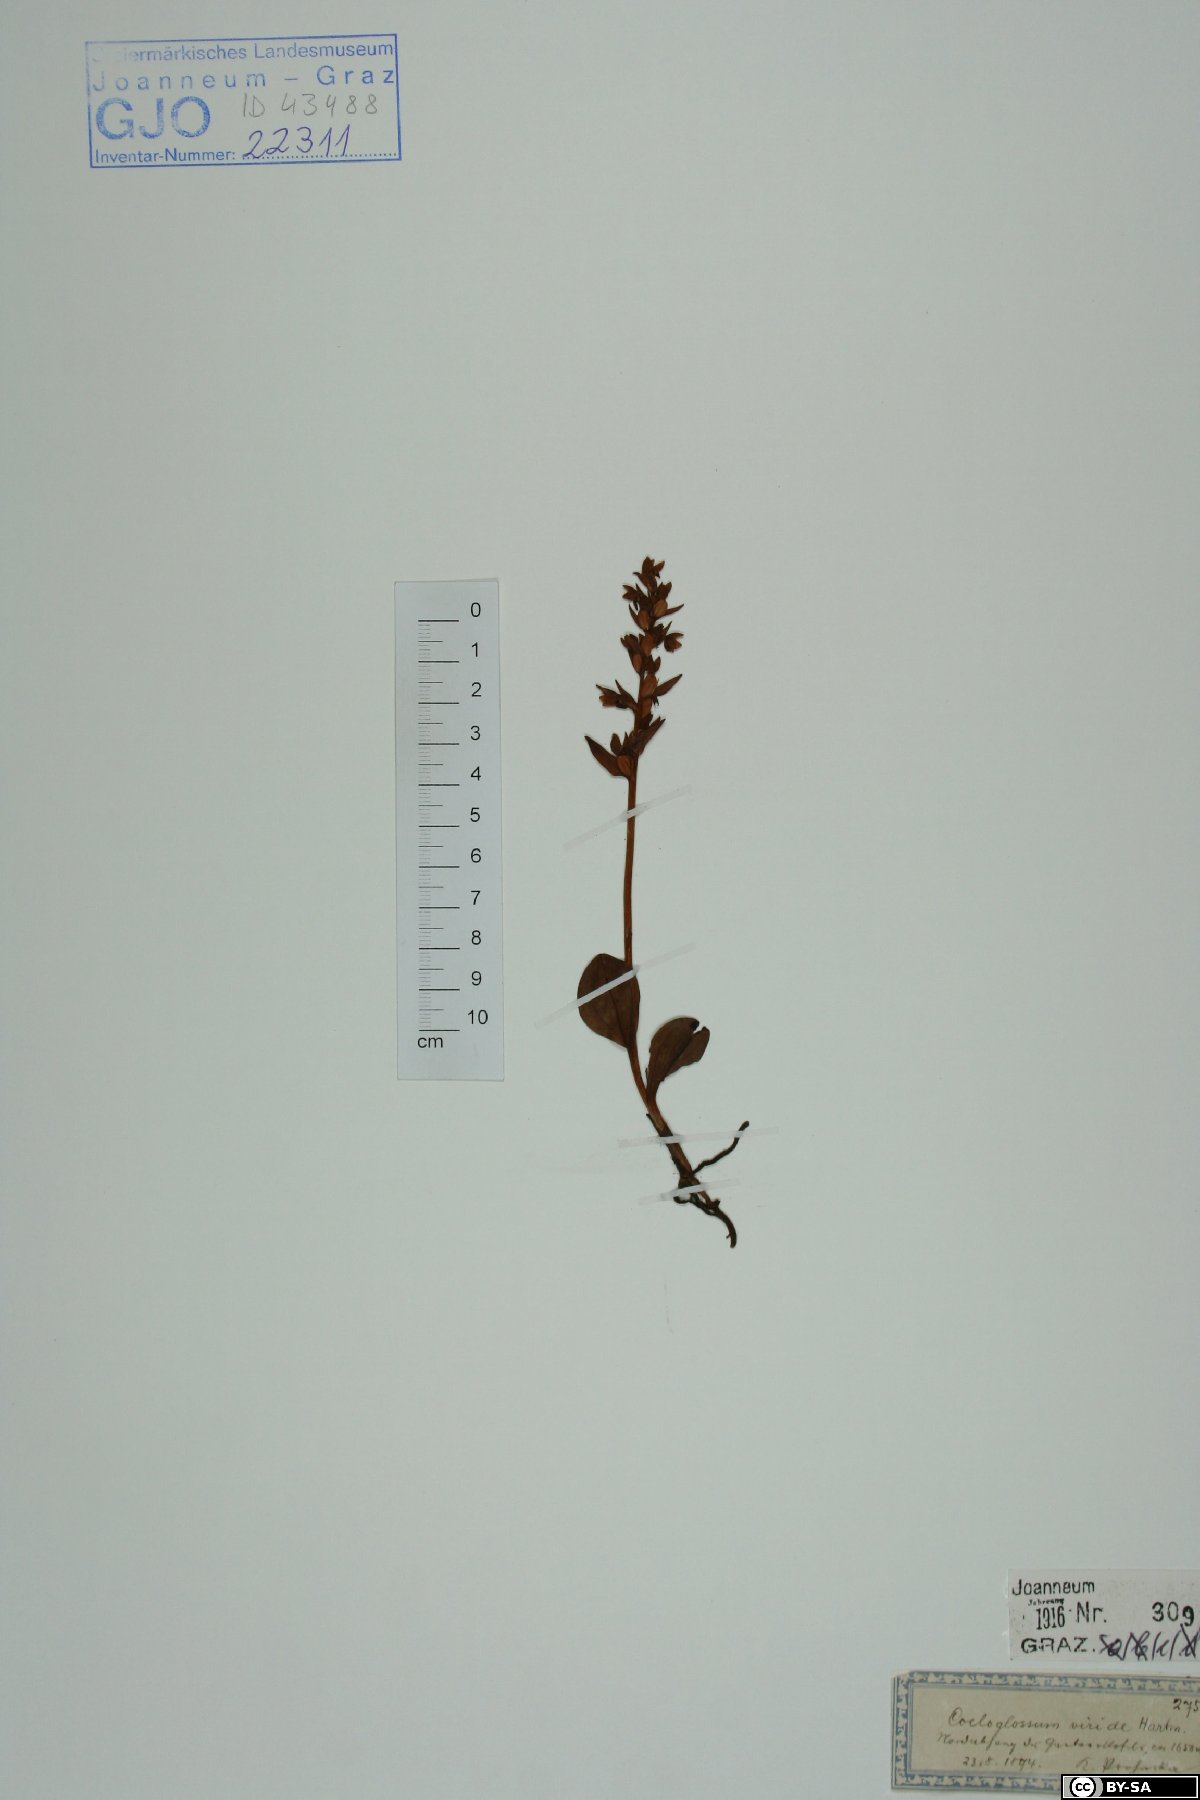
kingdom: Plantae
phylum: Tracheophyta
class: Liliopsida
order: Asparagales
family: Orchidaceae
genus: Dactylorhiza
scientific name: Dactylorhiza viridis
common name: Longbract frog orchid
